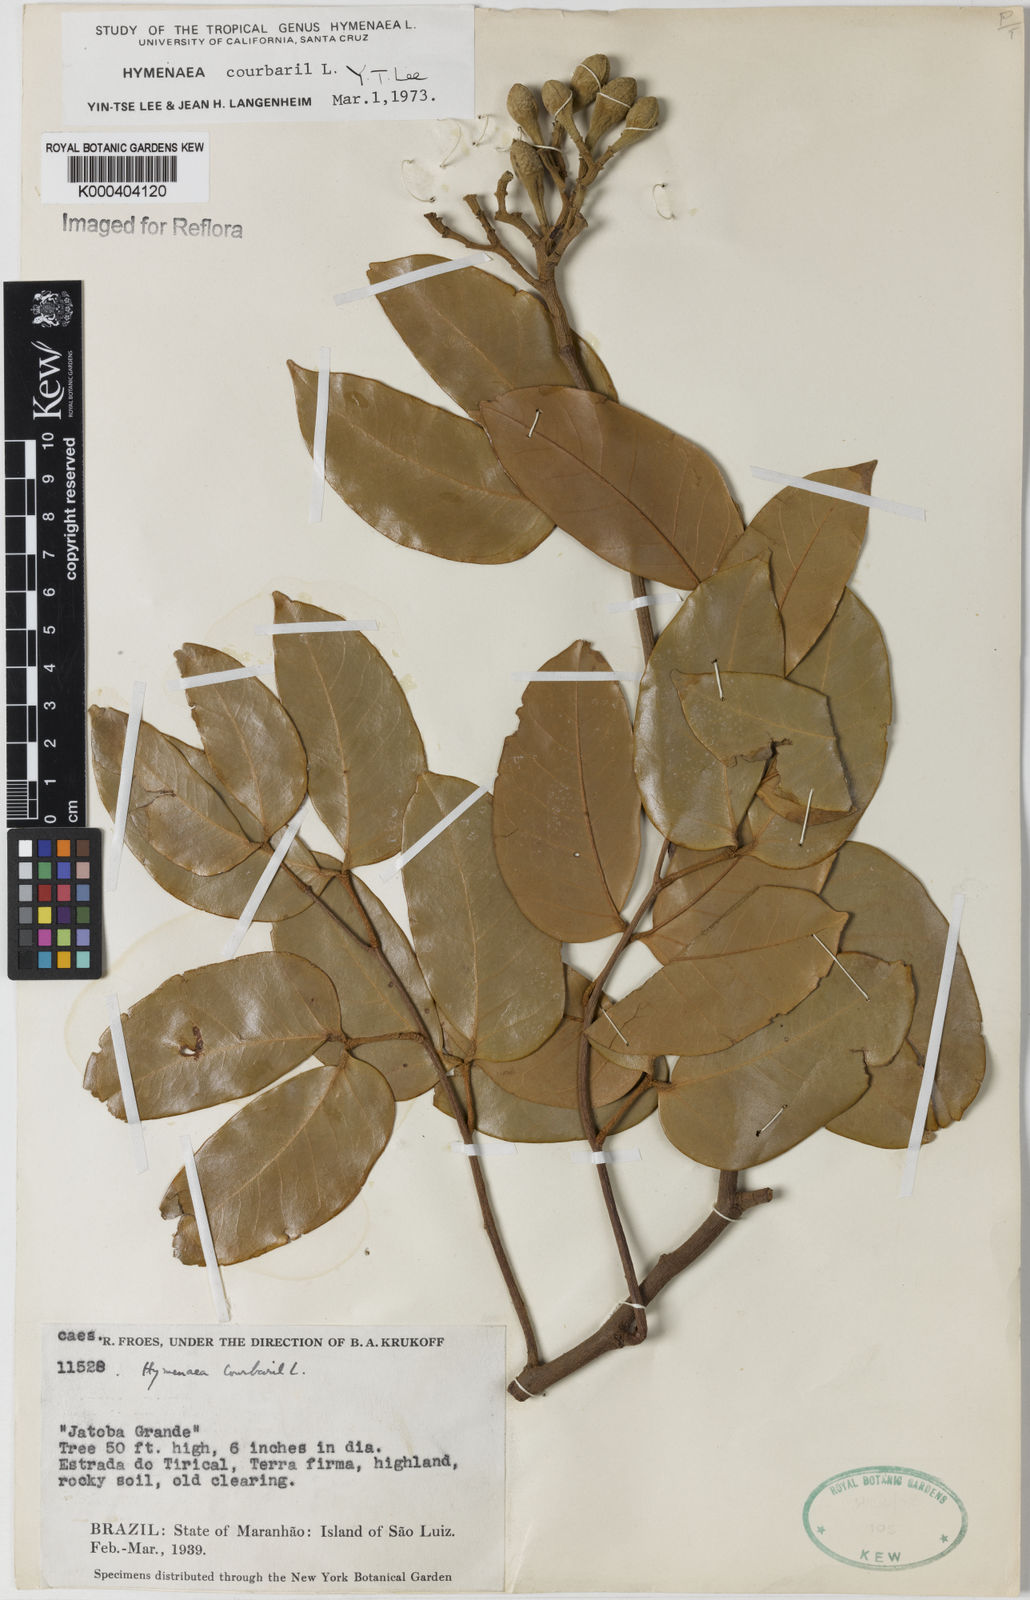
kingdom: Plantae
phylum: Tracheophyta
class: Magnoliopsida
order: Fabales
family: Fabaceae
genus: Hymenaea
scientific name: Hymenaea courbaril
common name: Brazilian copal
